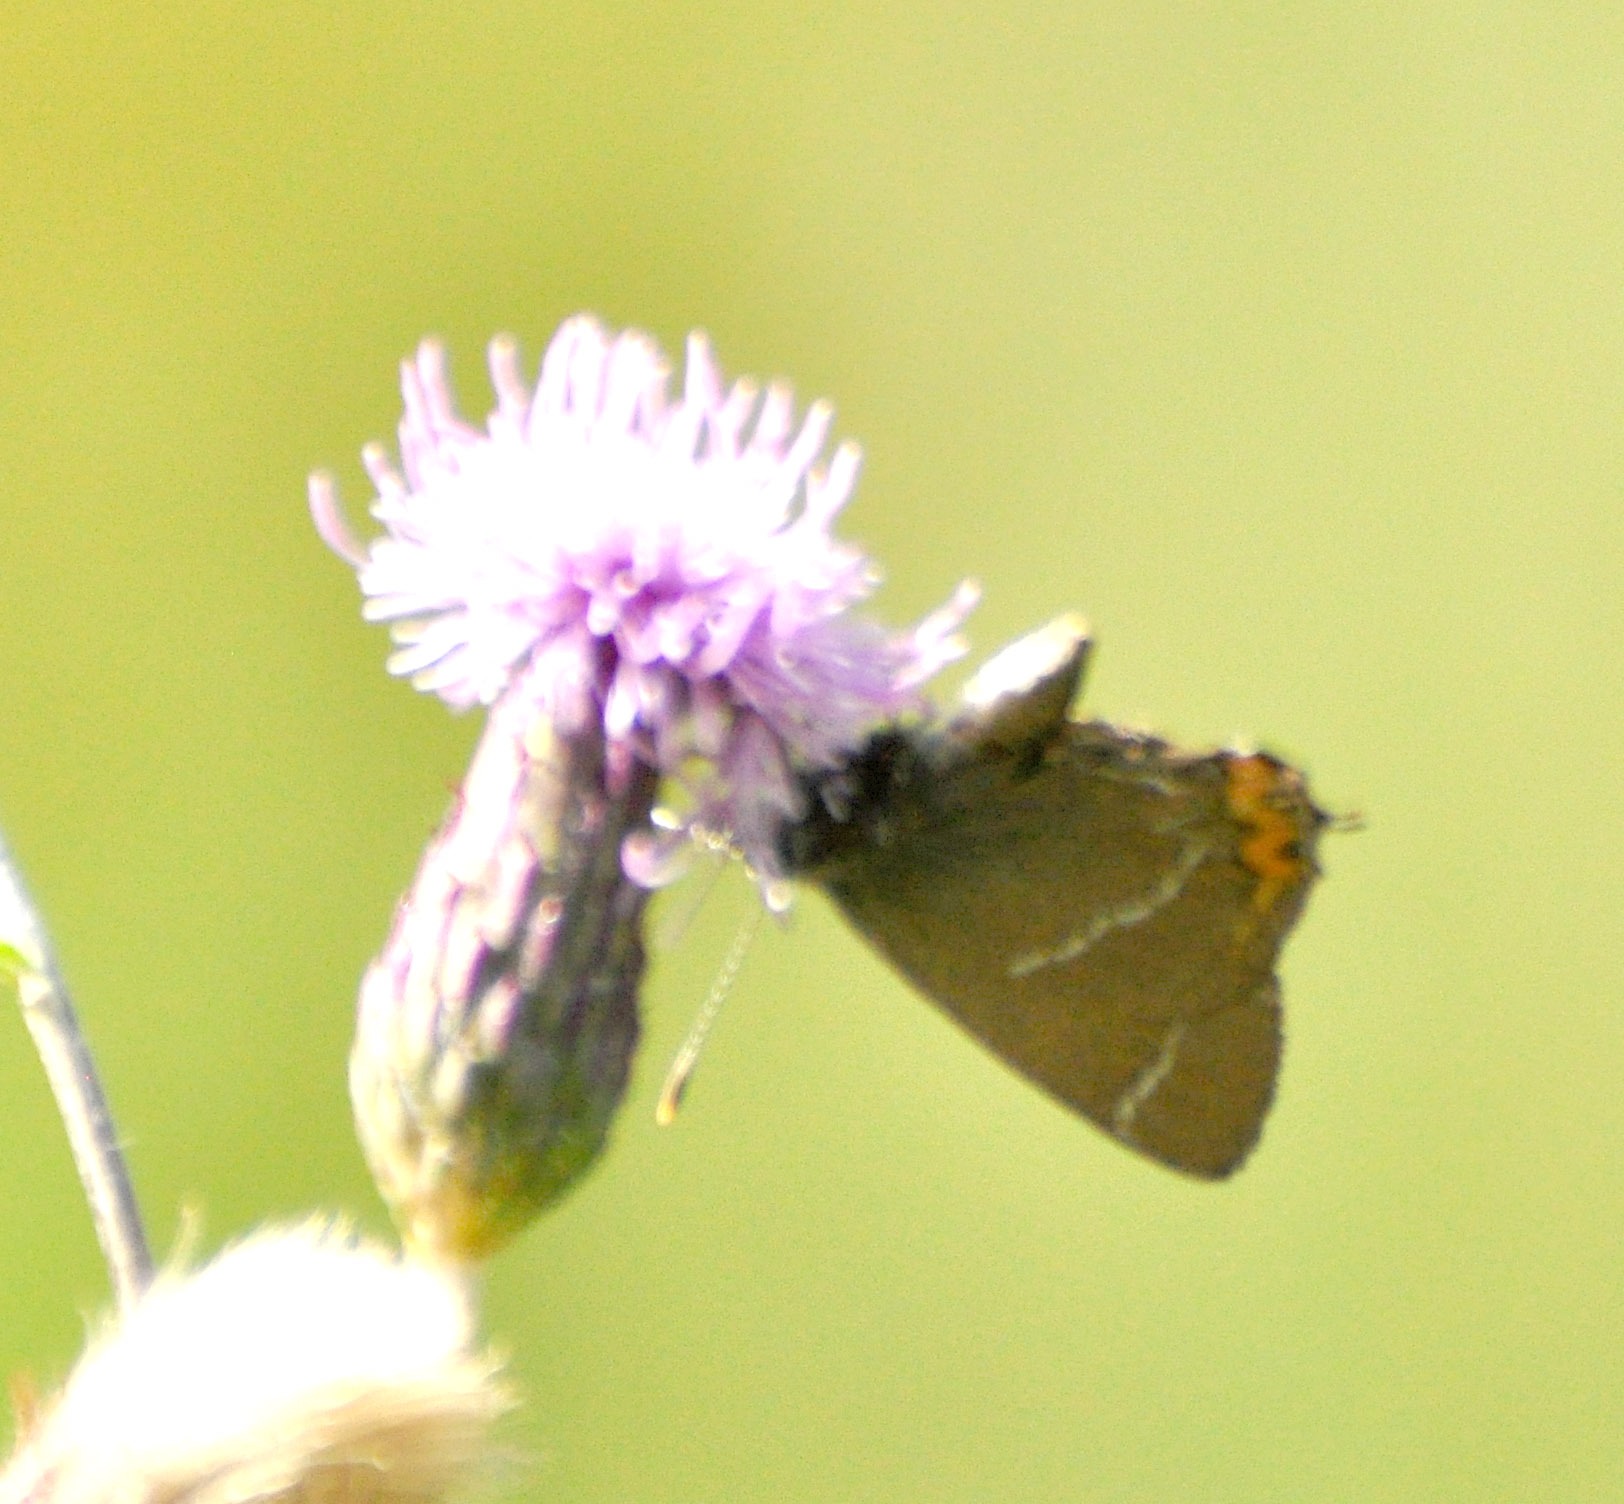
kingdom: Animalia
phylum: Arthropoda
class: Insecta
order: Lepidoptera
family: Lycaenidae
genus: Satyrium
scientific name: Satyrium w-album
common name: Det hvide W
